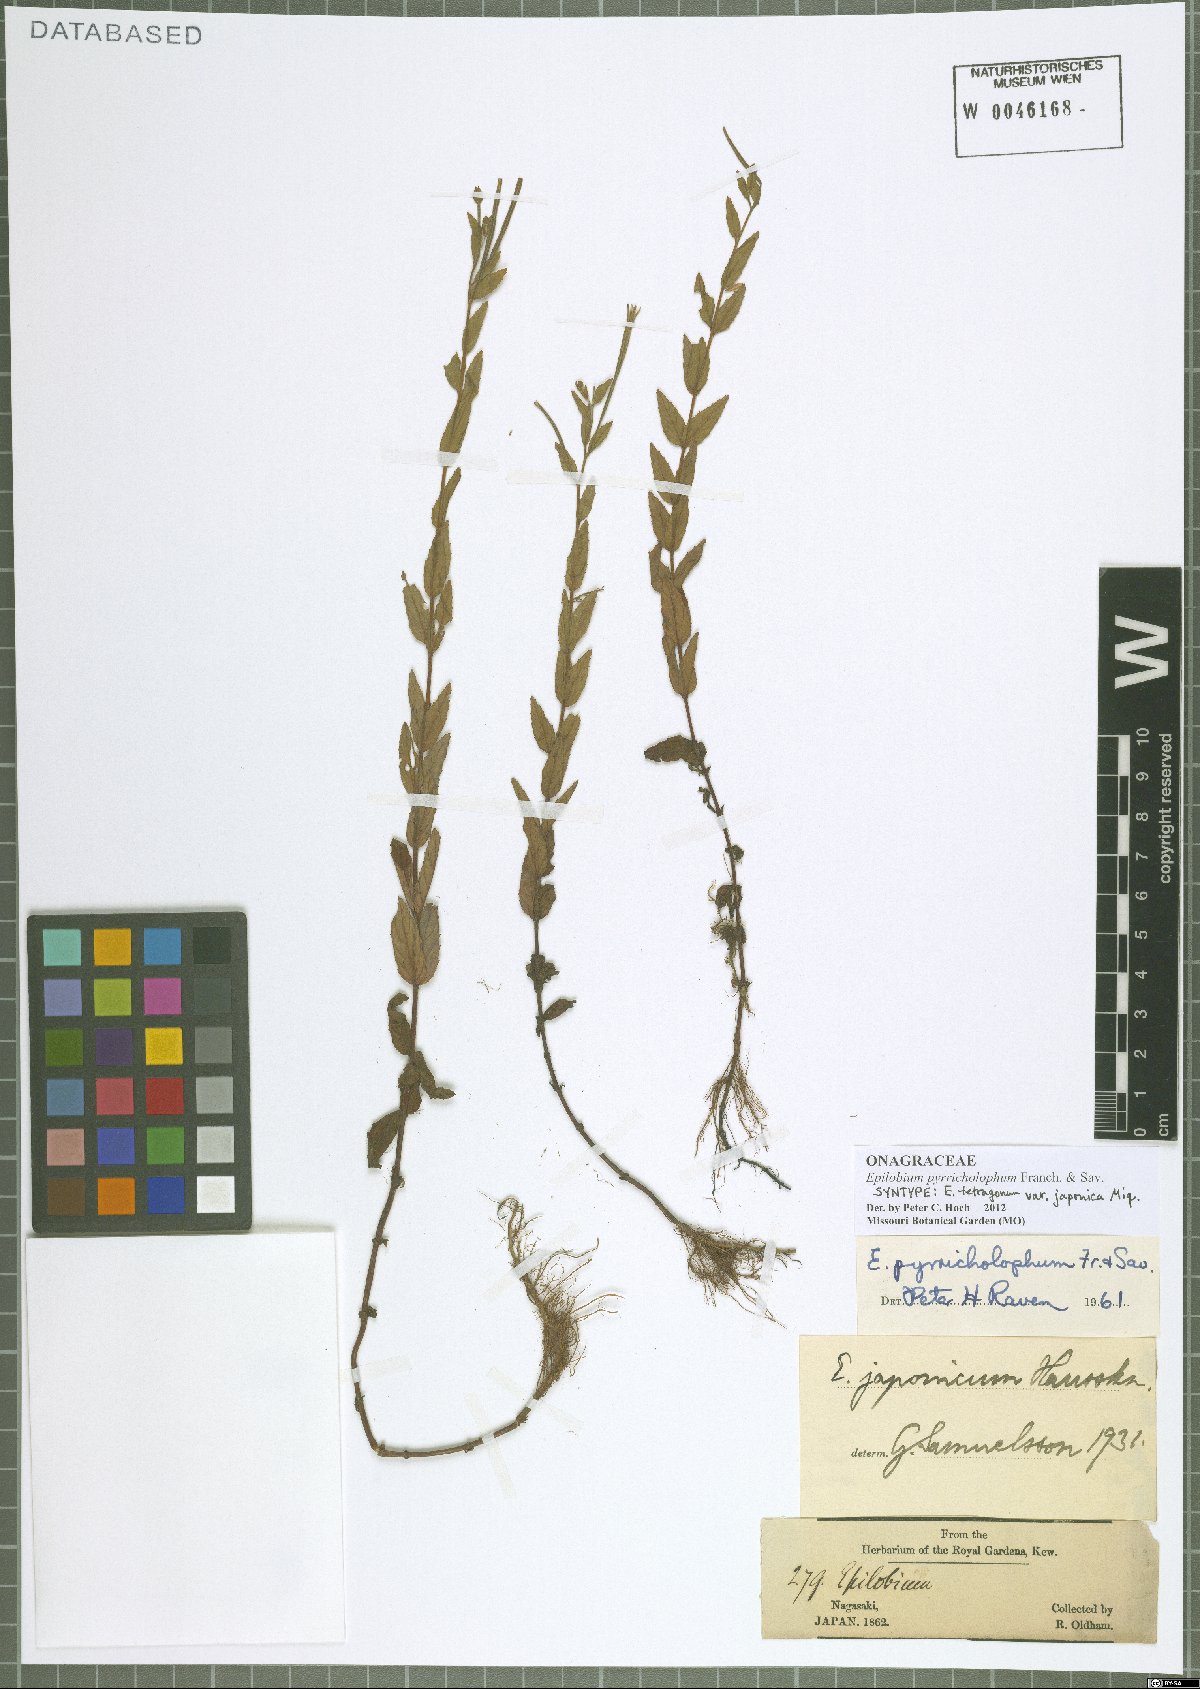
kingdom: Plantae
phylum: Tracheophyta
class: Magnoliopsida
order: Myrtales
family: Onagraceae
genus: Epilobium
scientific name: Epilobium pyrricholophum
